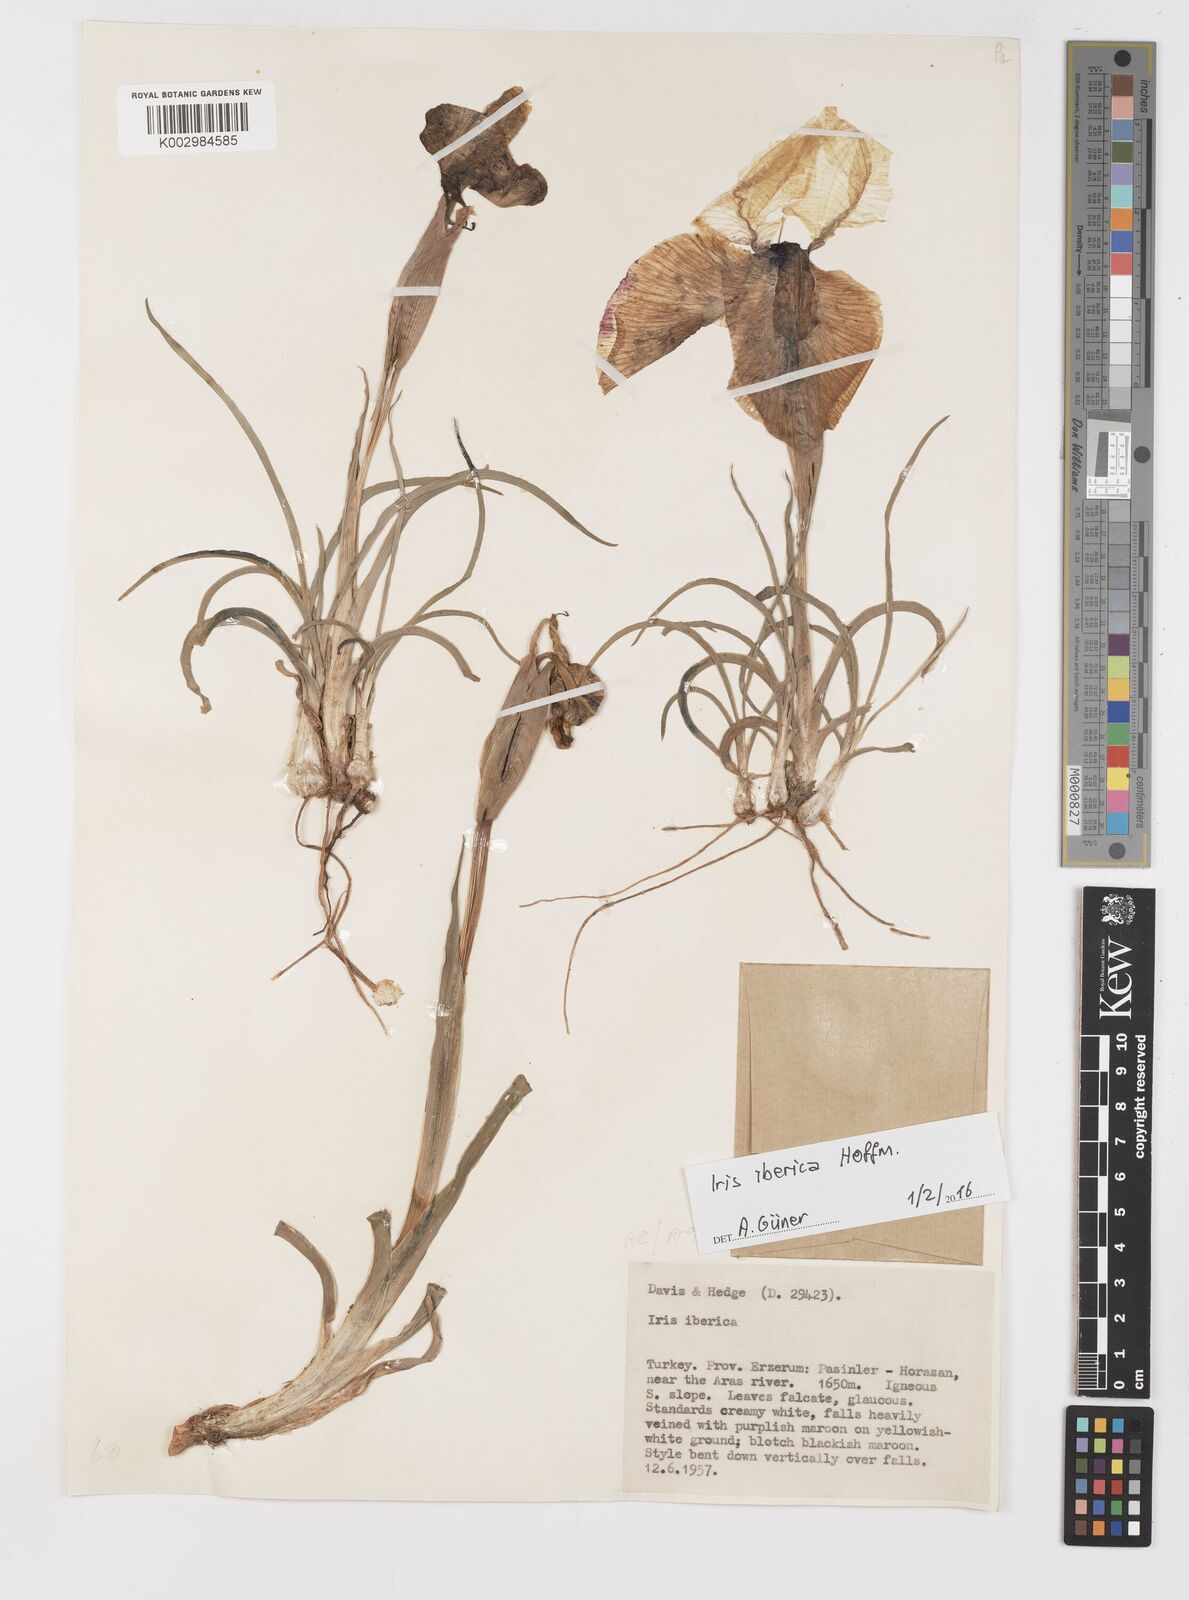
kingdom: Plantae
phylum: Tracheophyta
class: Liliopsida
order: Asparagales
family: Iridaceae
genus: Iris
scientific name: Iris iberica
